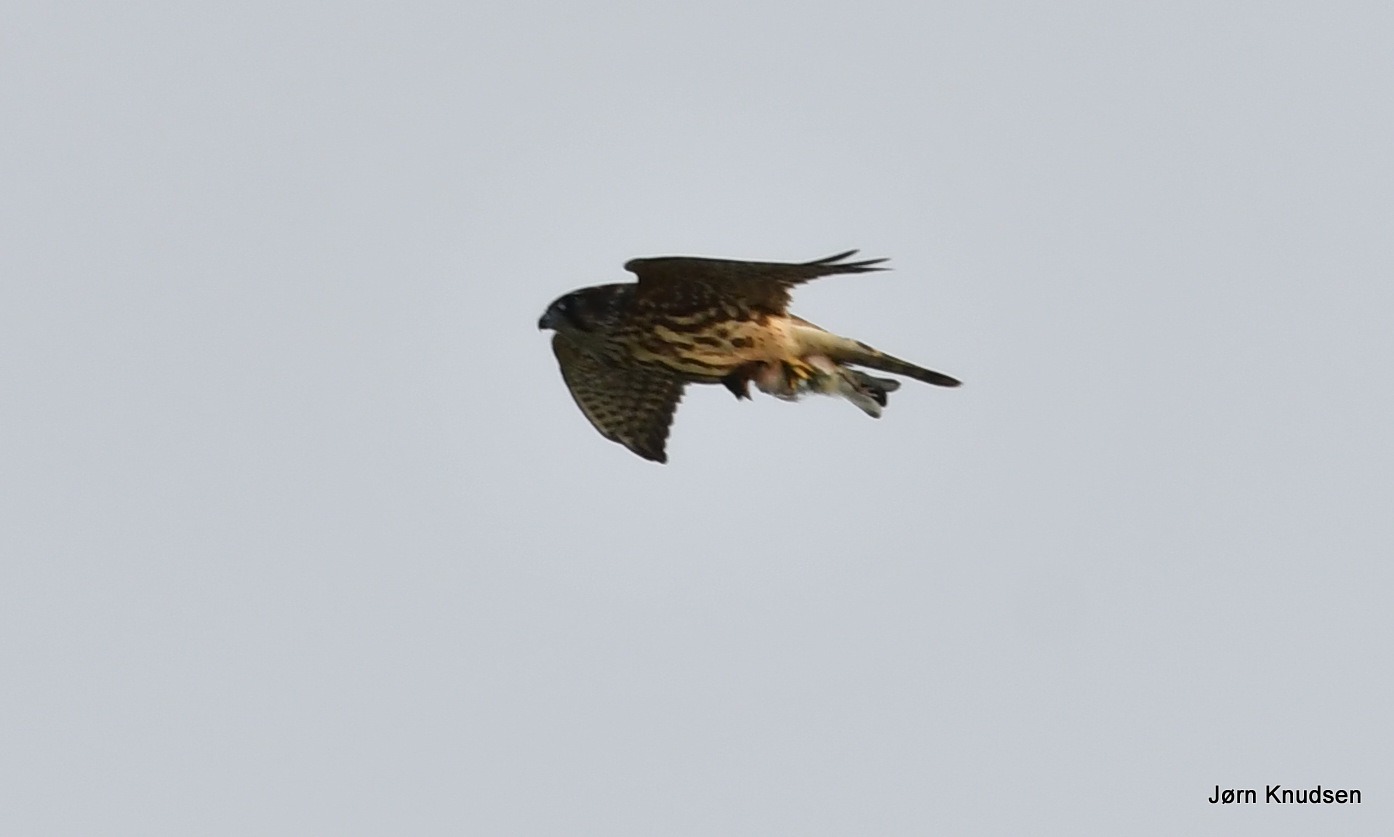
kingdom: Animalia
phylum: Chordata
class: Aves
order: Falconiformes
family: Falconidae
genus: Falco
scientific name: Falco columbarius
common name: Dværgfalk
